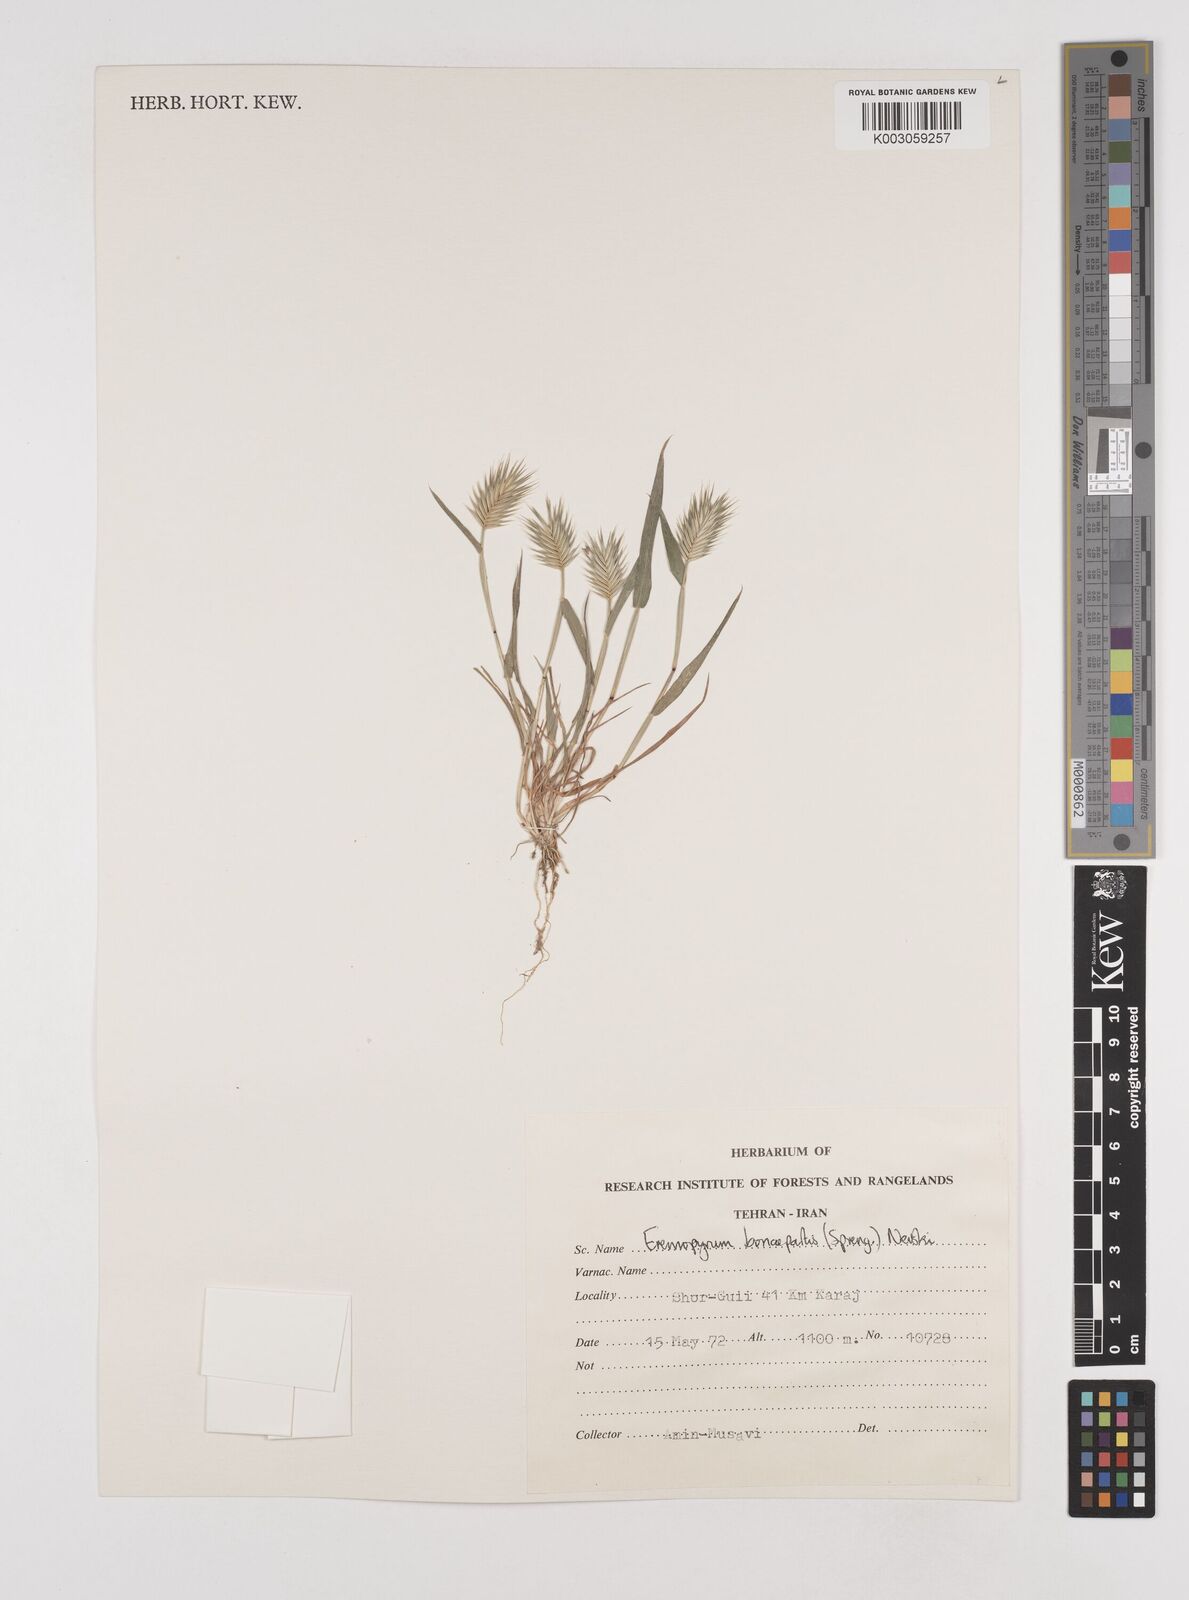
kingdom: Plantae
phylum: Tracheophyta
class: Liliopsida
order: Poales
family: Poaceae
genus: Eremopyrum
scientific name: Eremopyrum bonaepartis
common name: Tapertip false wheatgrass
